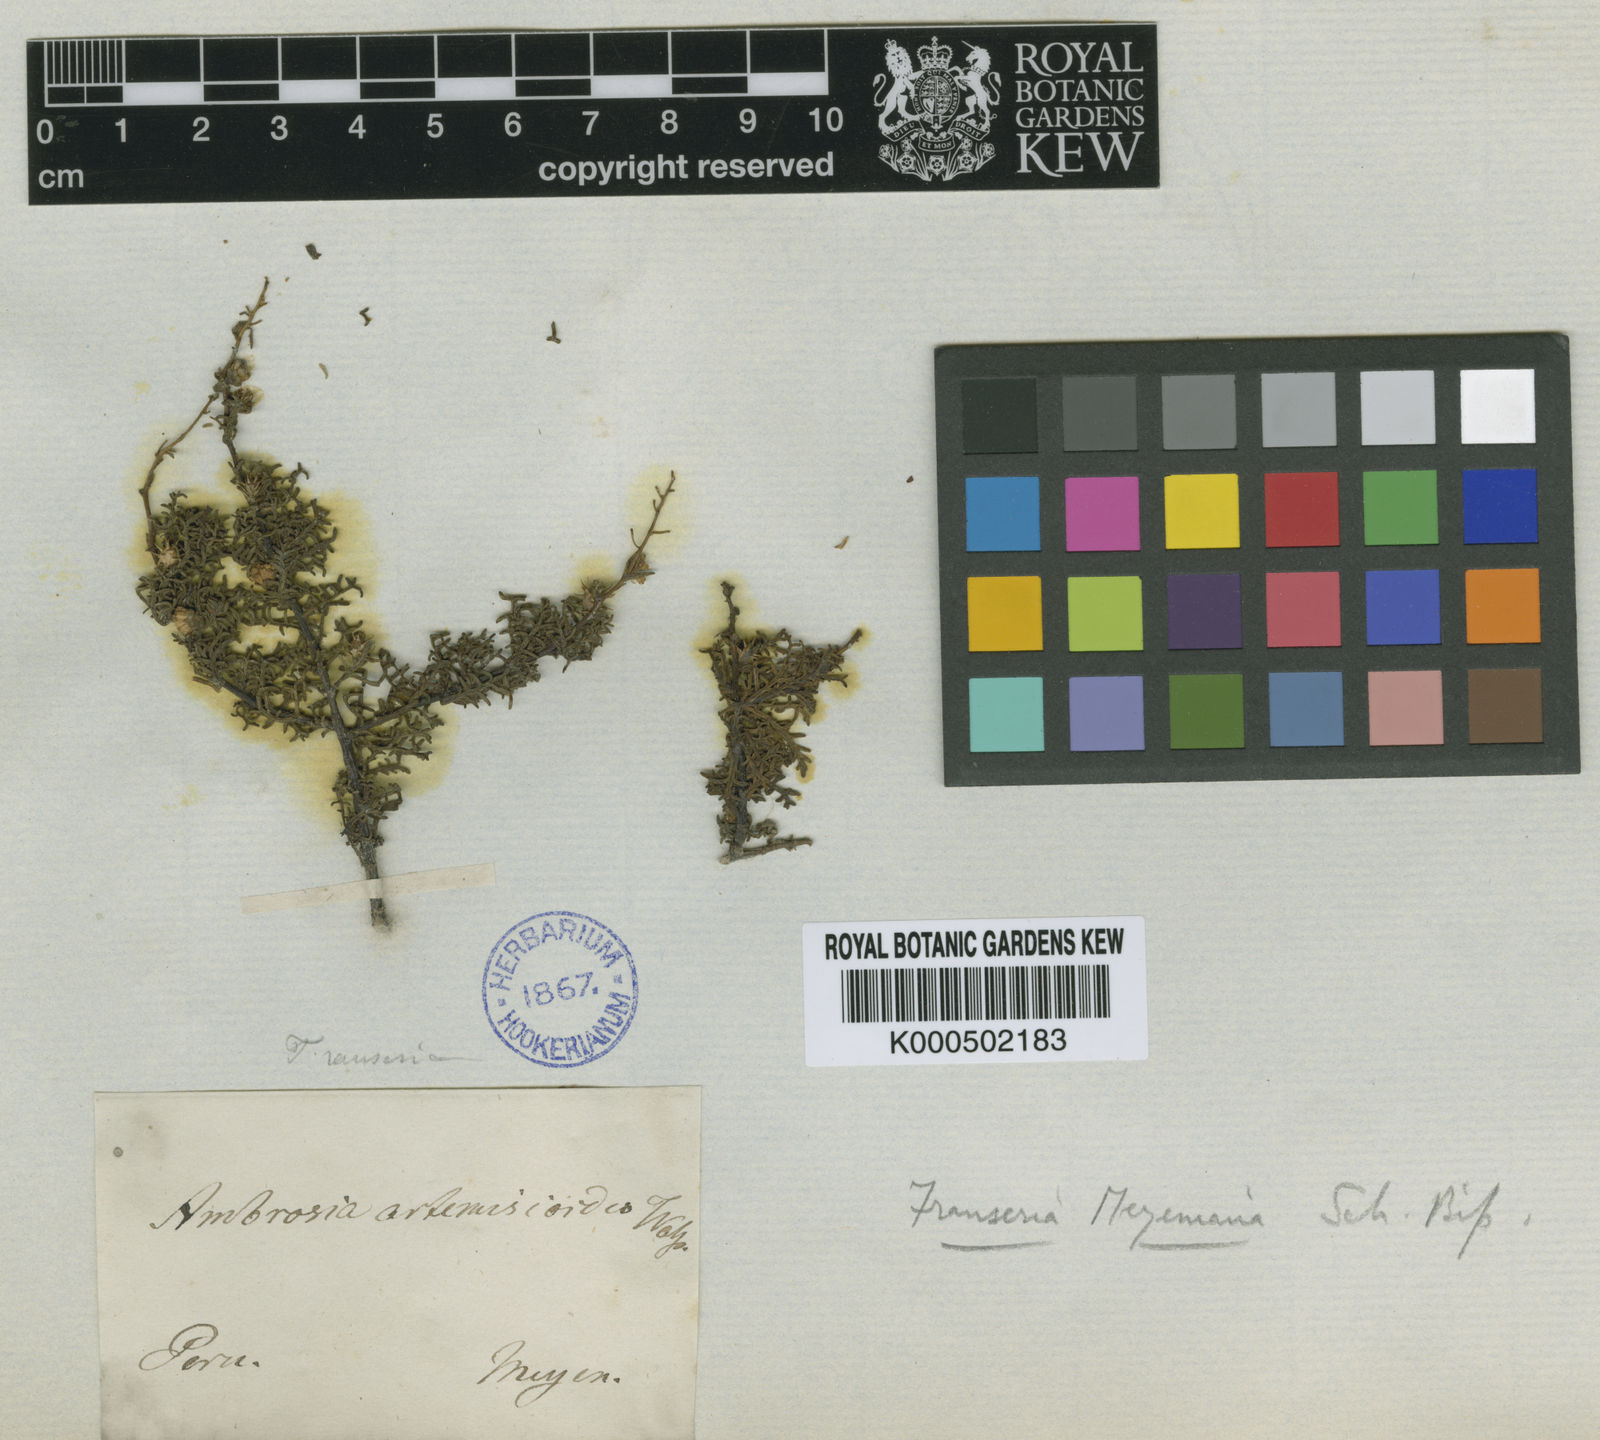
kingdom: Plantae
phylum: Tracheophyta
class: Magnoliopsida
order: Asterales
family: Asteraceae
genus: Ambrosia
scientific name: Ambrosia
